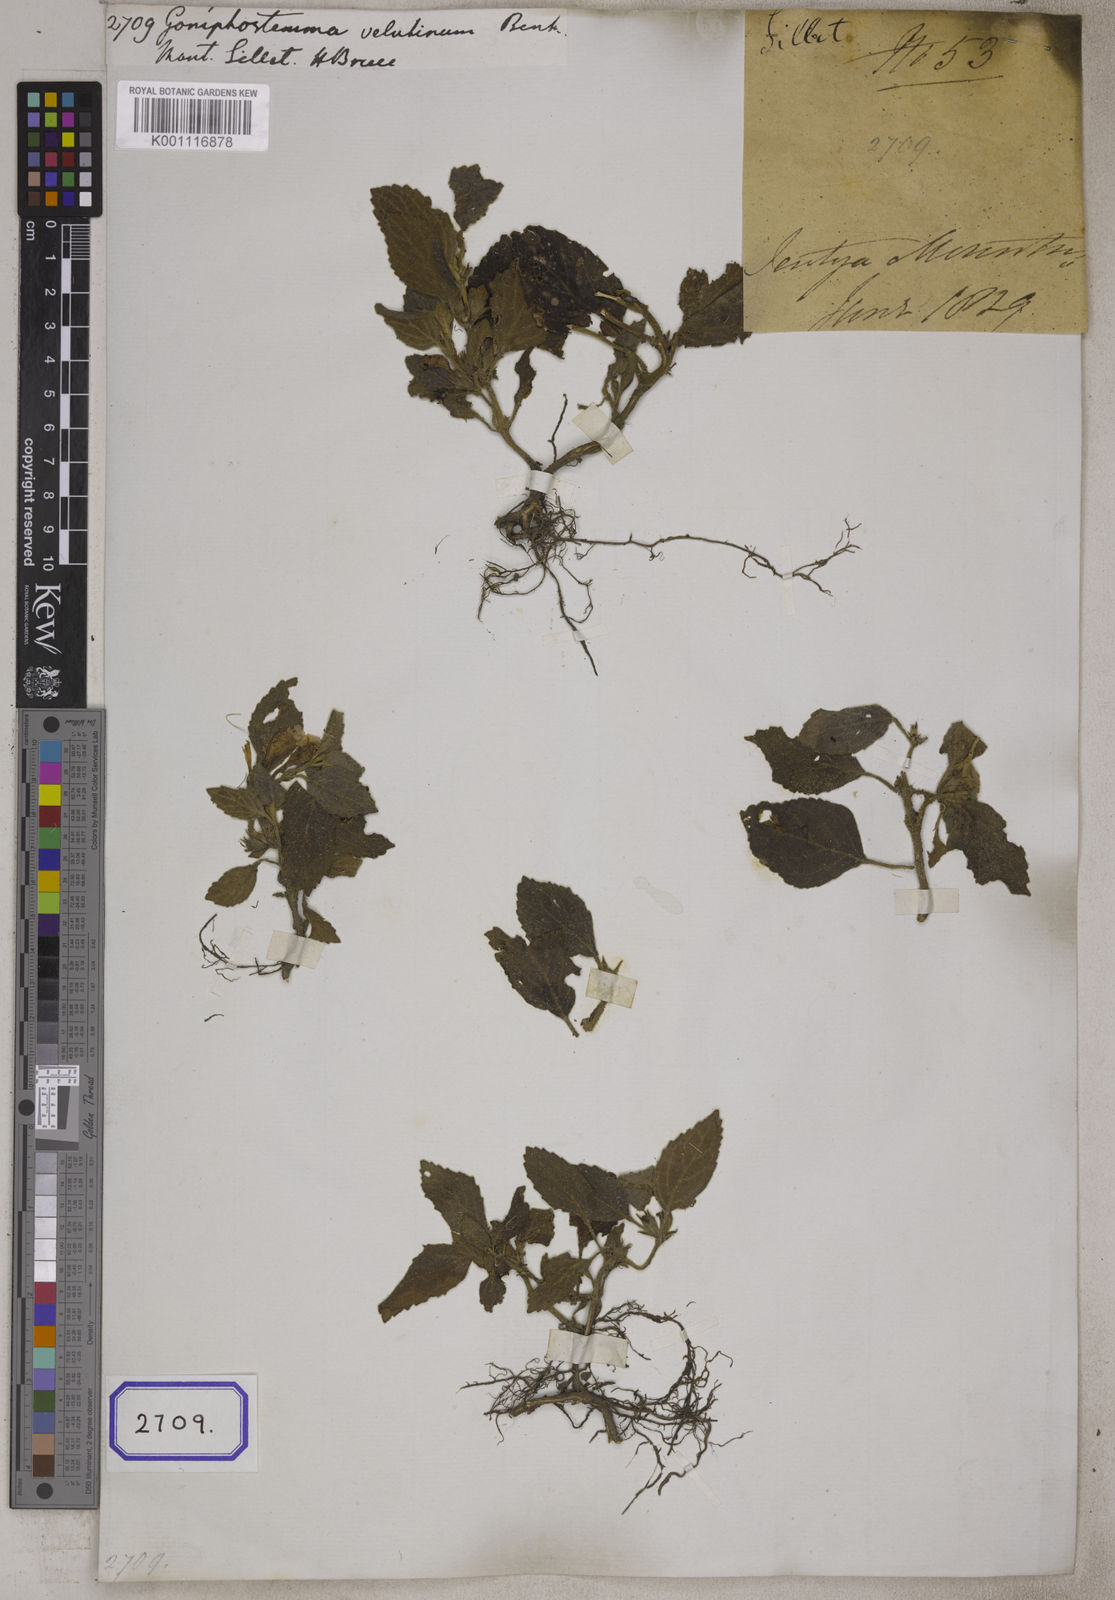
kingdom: Plantae
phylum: Tracheophyta
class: Magnoliopsida
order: Lamiales
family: Lamiaceae
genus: Gomphostemma
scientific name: Gomphostemma velutinum
